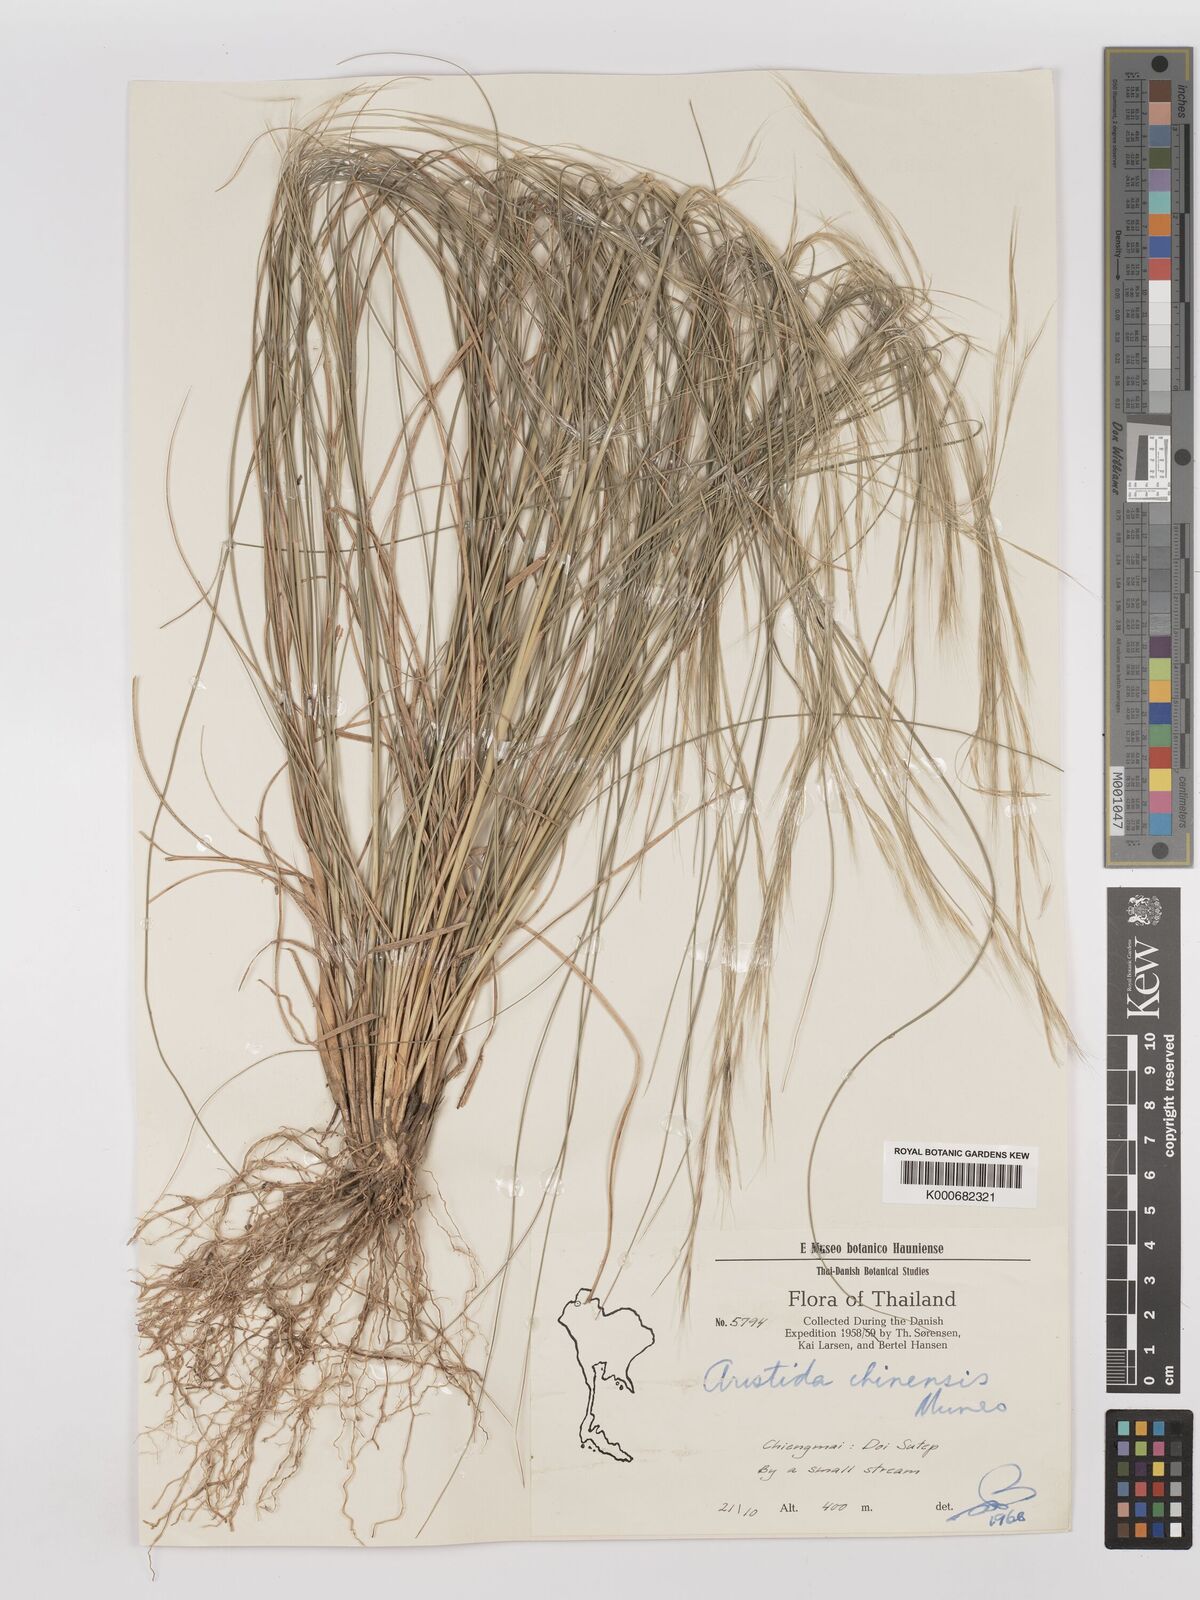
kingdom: Plantae
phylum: Tracheophyta
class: Liliopsida
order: Poales
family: Poaceae
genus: Aristida
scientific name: Aristida culionensis
